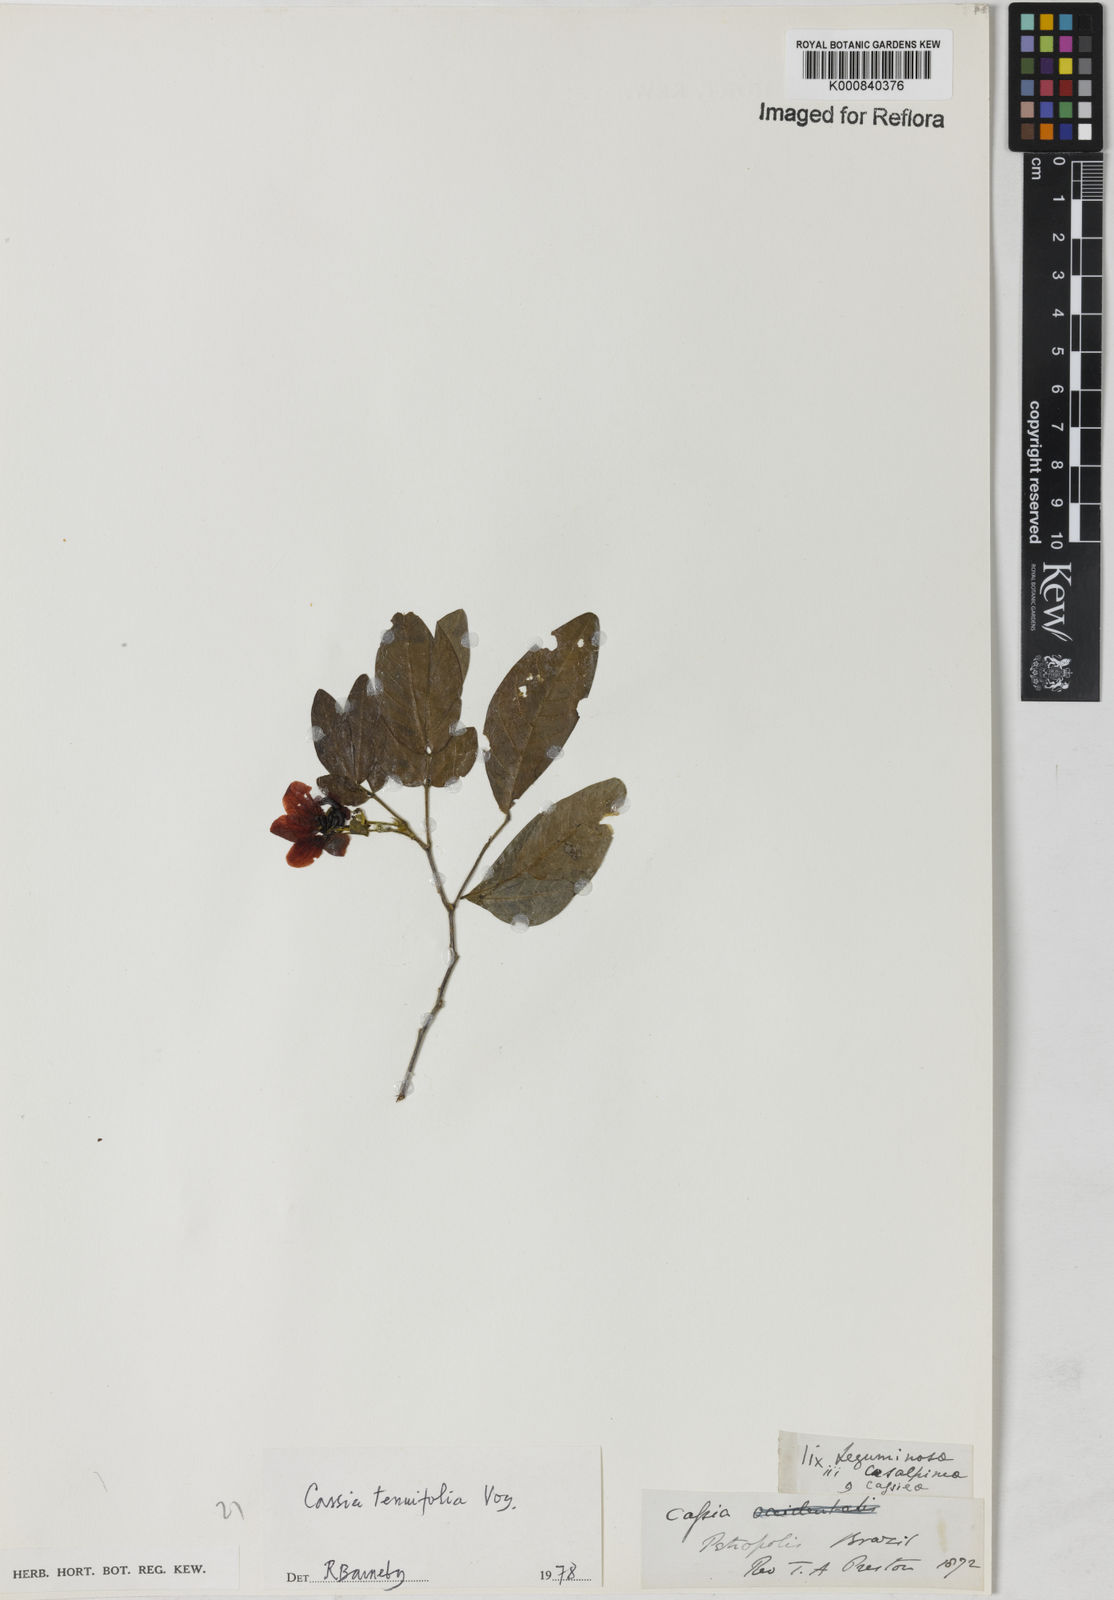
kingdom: Plantae
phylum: Tracheophyta
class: Magnoliopsida
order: Fabales
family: Fabaceae
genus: Senna
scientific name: Senna tenuifolia
